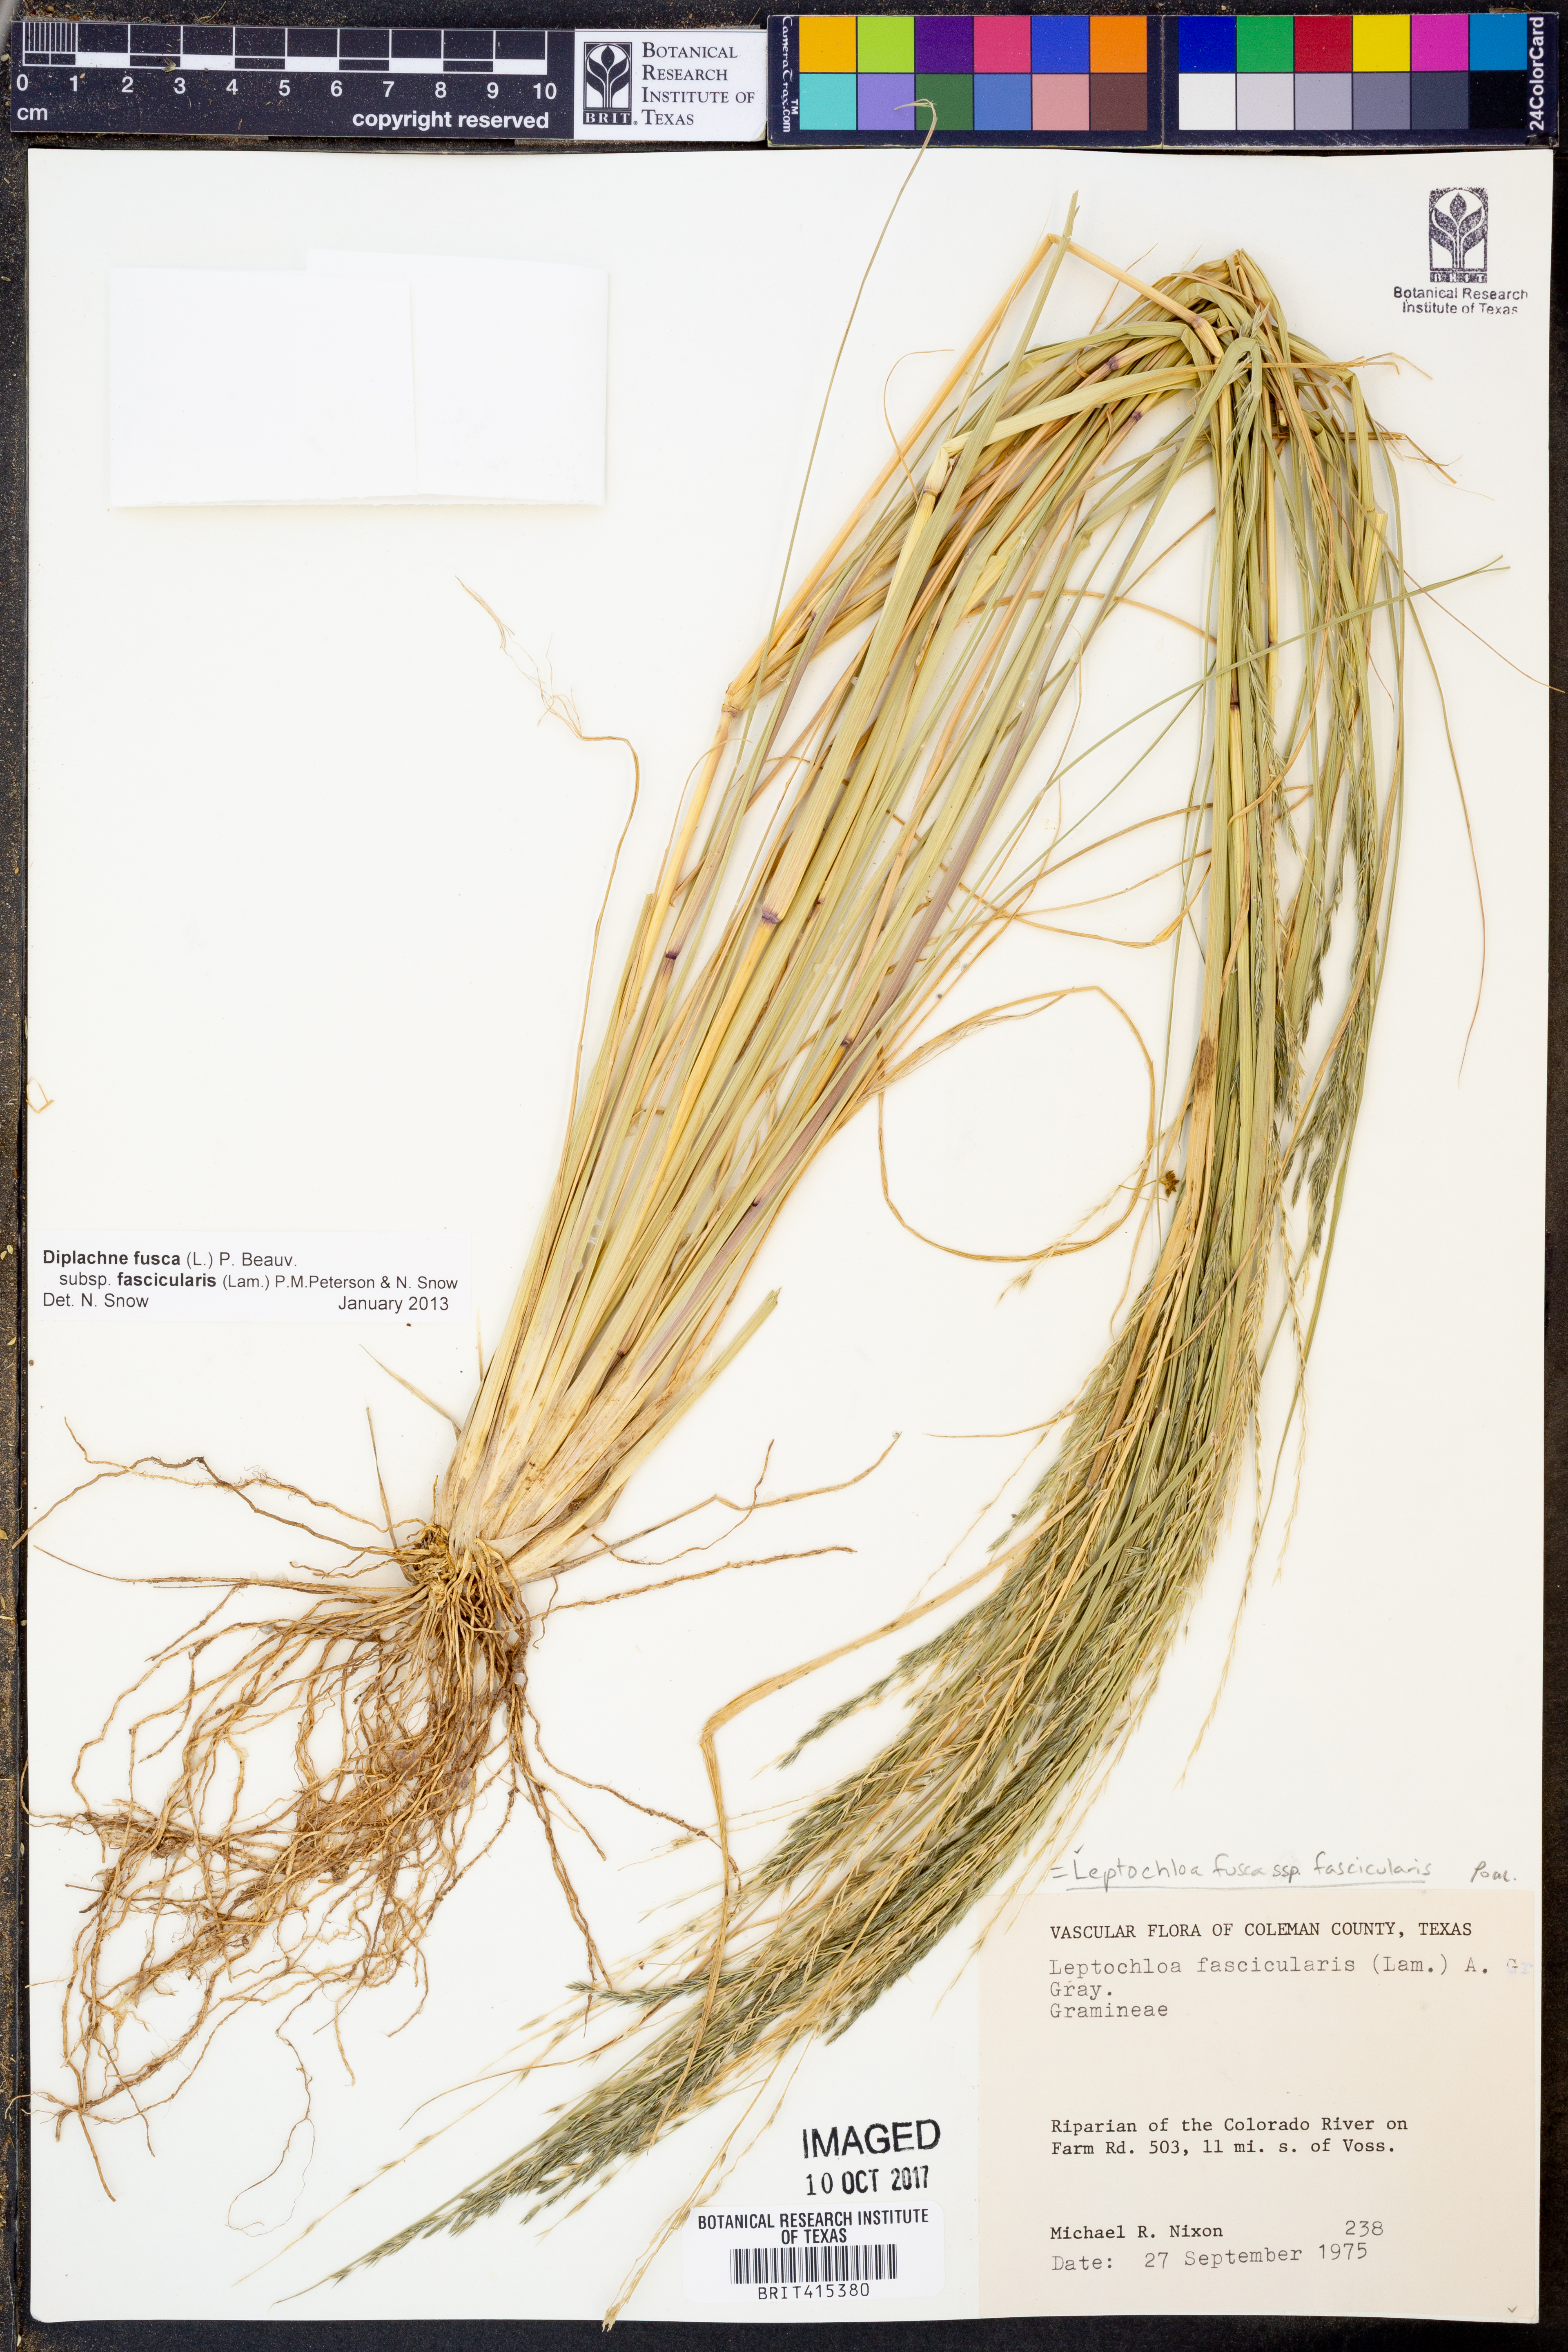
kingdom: Plantae
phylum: Tracheophyta
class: Liliopsida
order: Poales
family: Poaceae
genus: Diplachne
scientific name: Diplachne fusca
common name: Brown beetle grass
